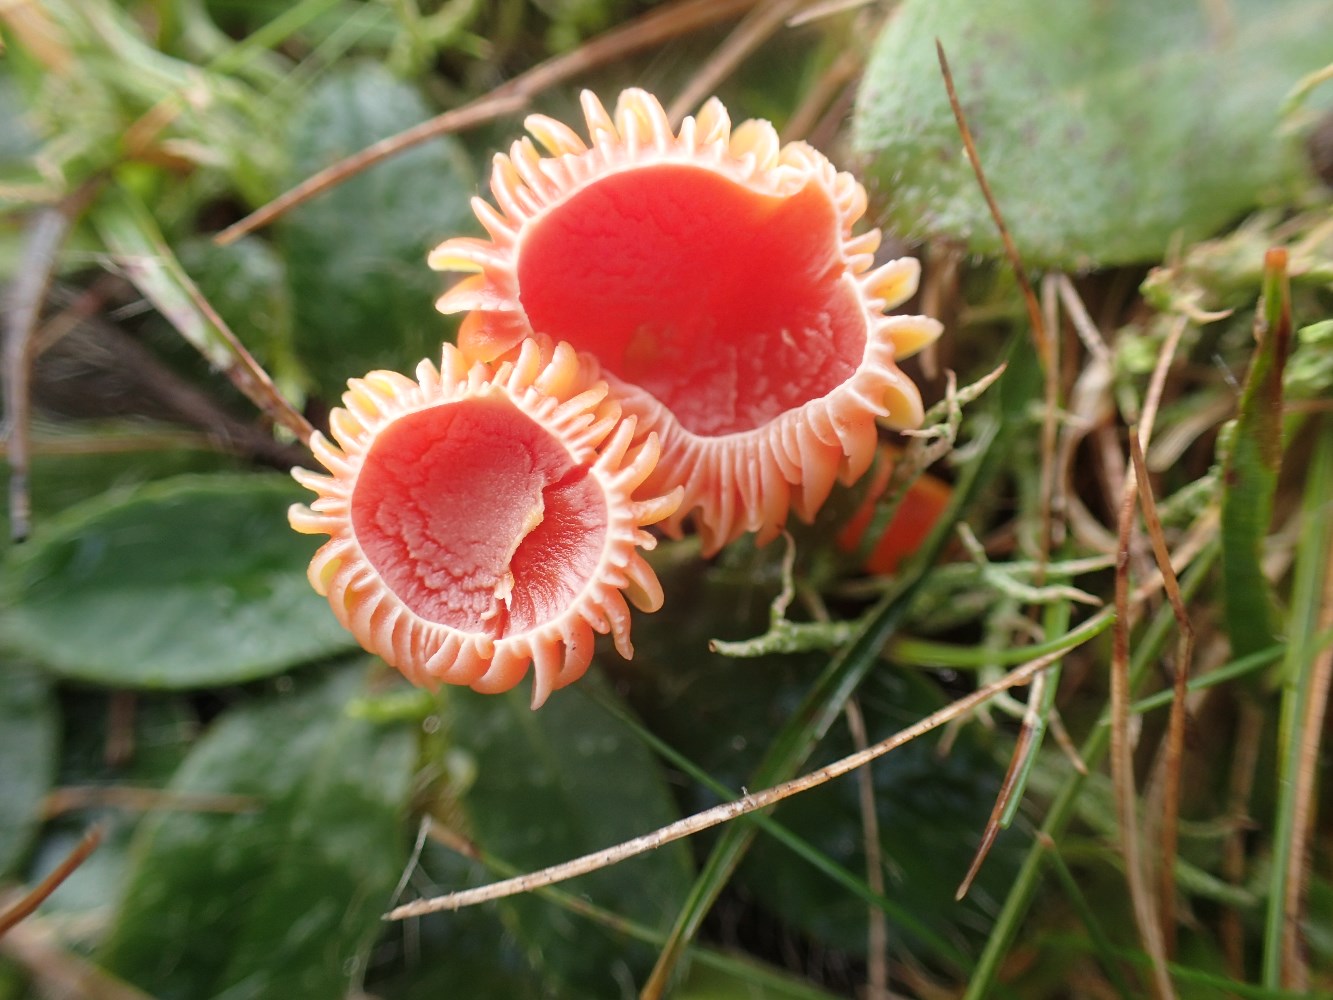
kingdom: Fungi
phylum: Basidiomycota
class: Agaricomycetes
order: Agaricales
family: Hygrophoraceae
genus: Hygrocybe
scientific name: Hygrocybe reidii
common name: honning-vokshat
